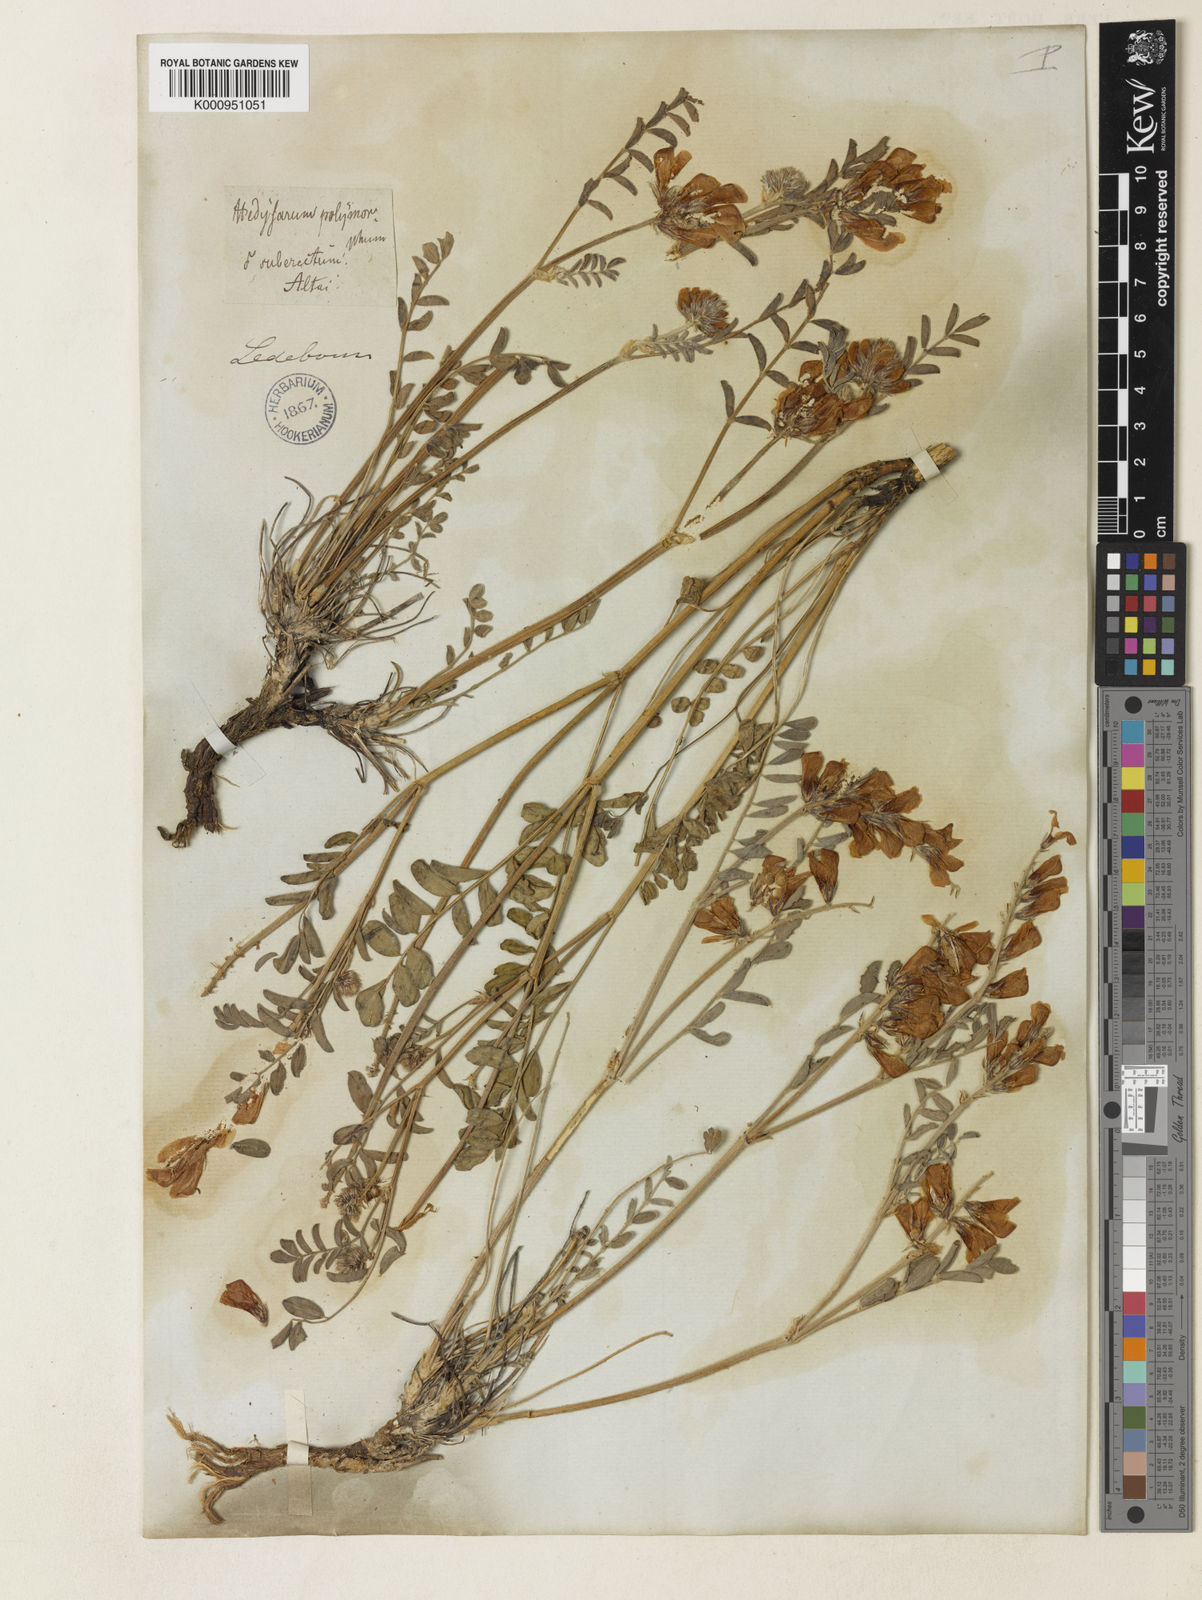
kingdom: Plantae
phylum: Tracheophyta
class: Magnoliopsida
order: Fabales
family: Fabaceae
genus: Hedysarum
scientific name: Hedysarum gmelinii
